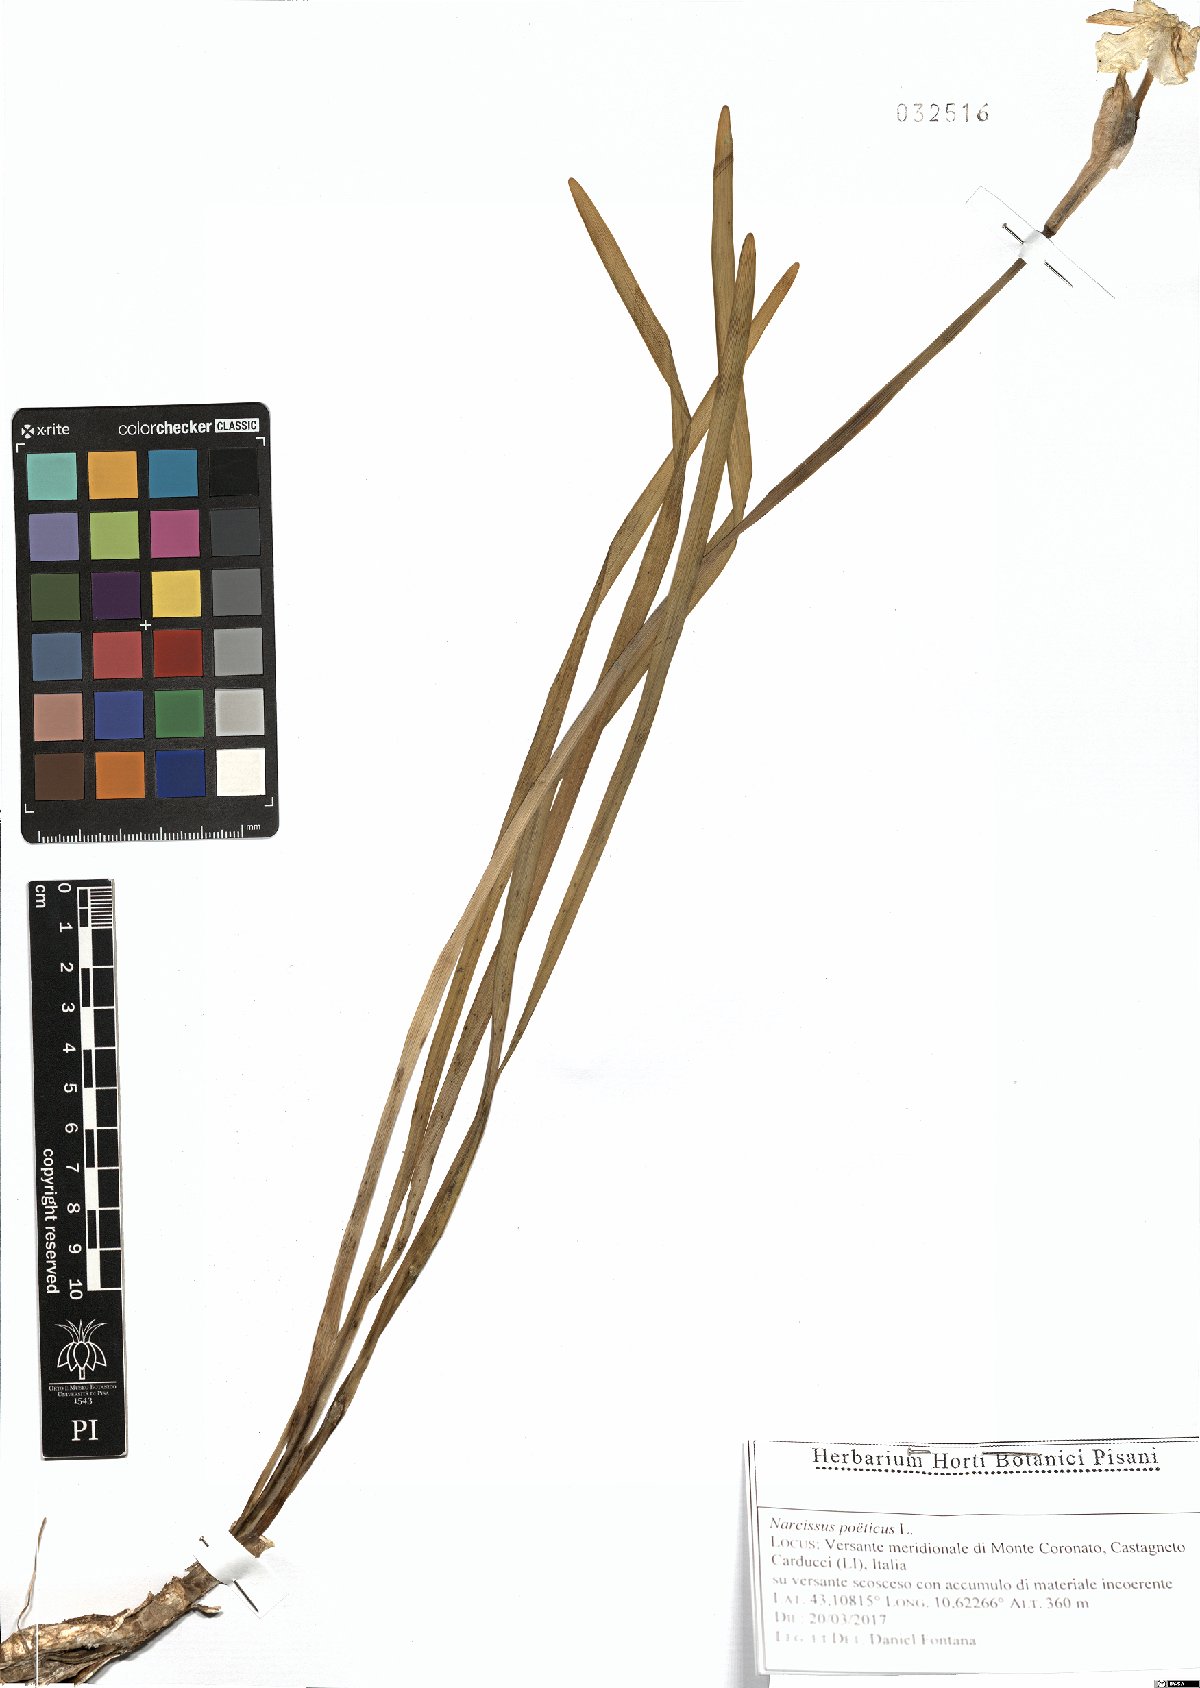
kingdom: Plantae
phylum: Tracheophyta
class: Liliopsida
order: Asparagales
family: Amaryllidaceae
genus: Narcissus
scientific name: Narcissus poeticus
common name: Pheasant's-eye daffodil
